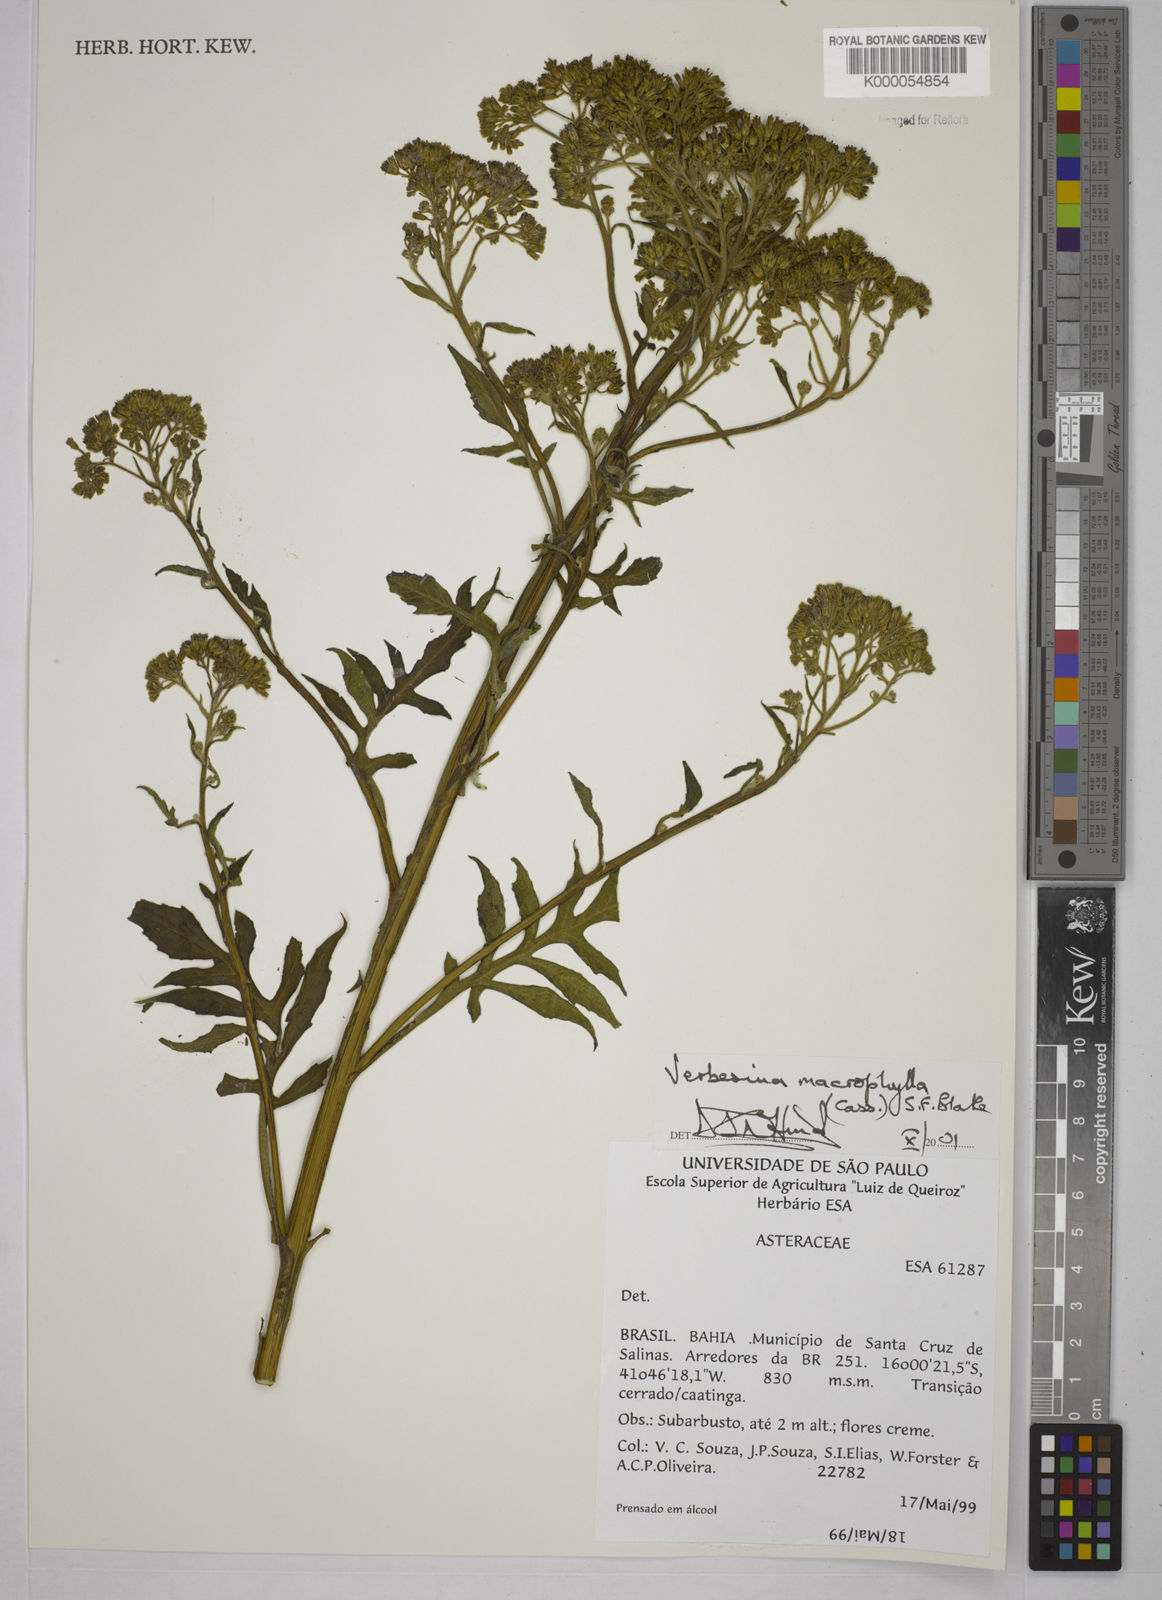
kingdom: Plantae
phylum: Tracheophyta
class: Magnoliopsida
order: Asterales
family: Asteraceae
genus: Verbesina
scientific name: Verbesina macrophylla
